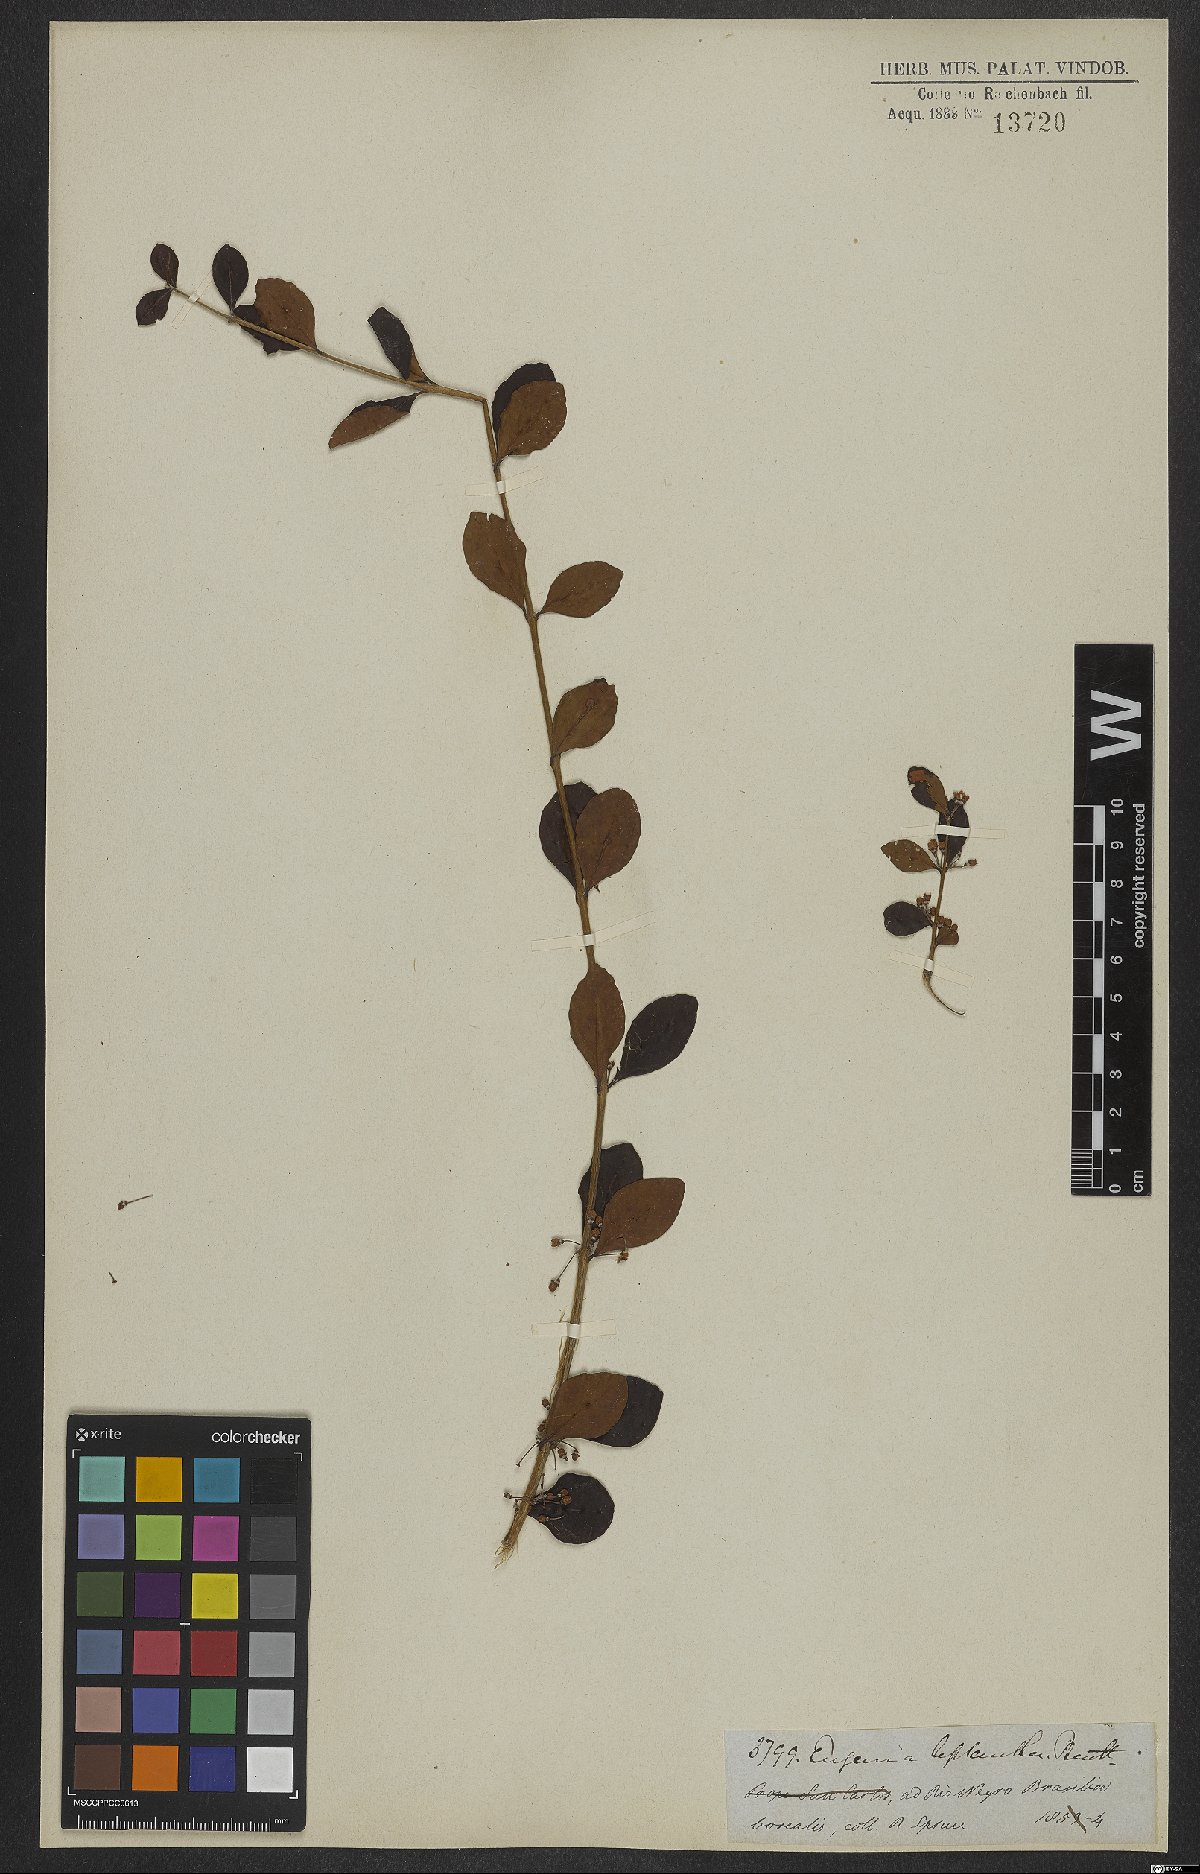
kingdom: Plantae
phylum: Tracheophyta
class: Magnoliopsida
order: Myrtales
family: Myrtaceae
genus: Eugenia
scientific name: Eugenia inundata
